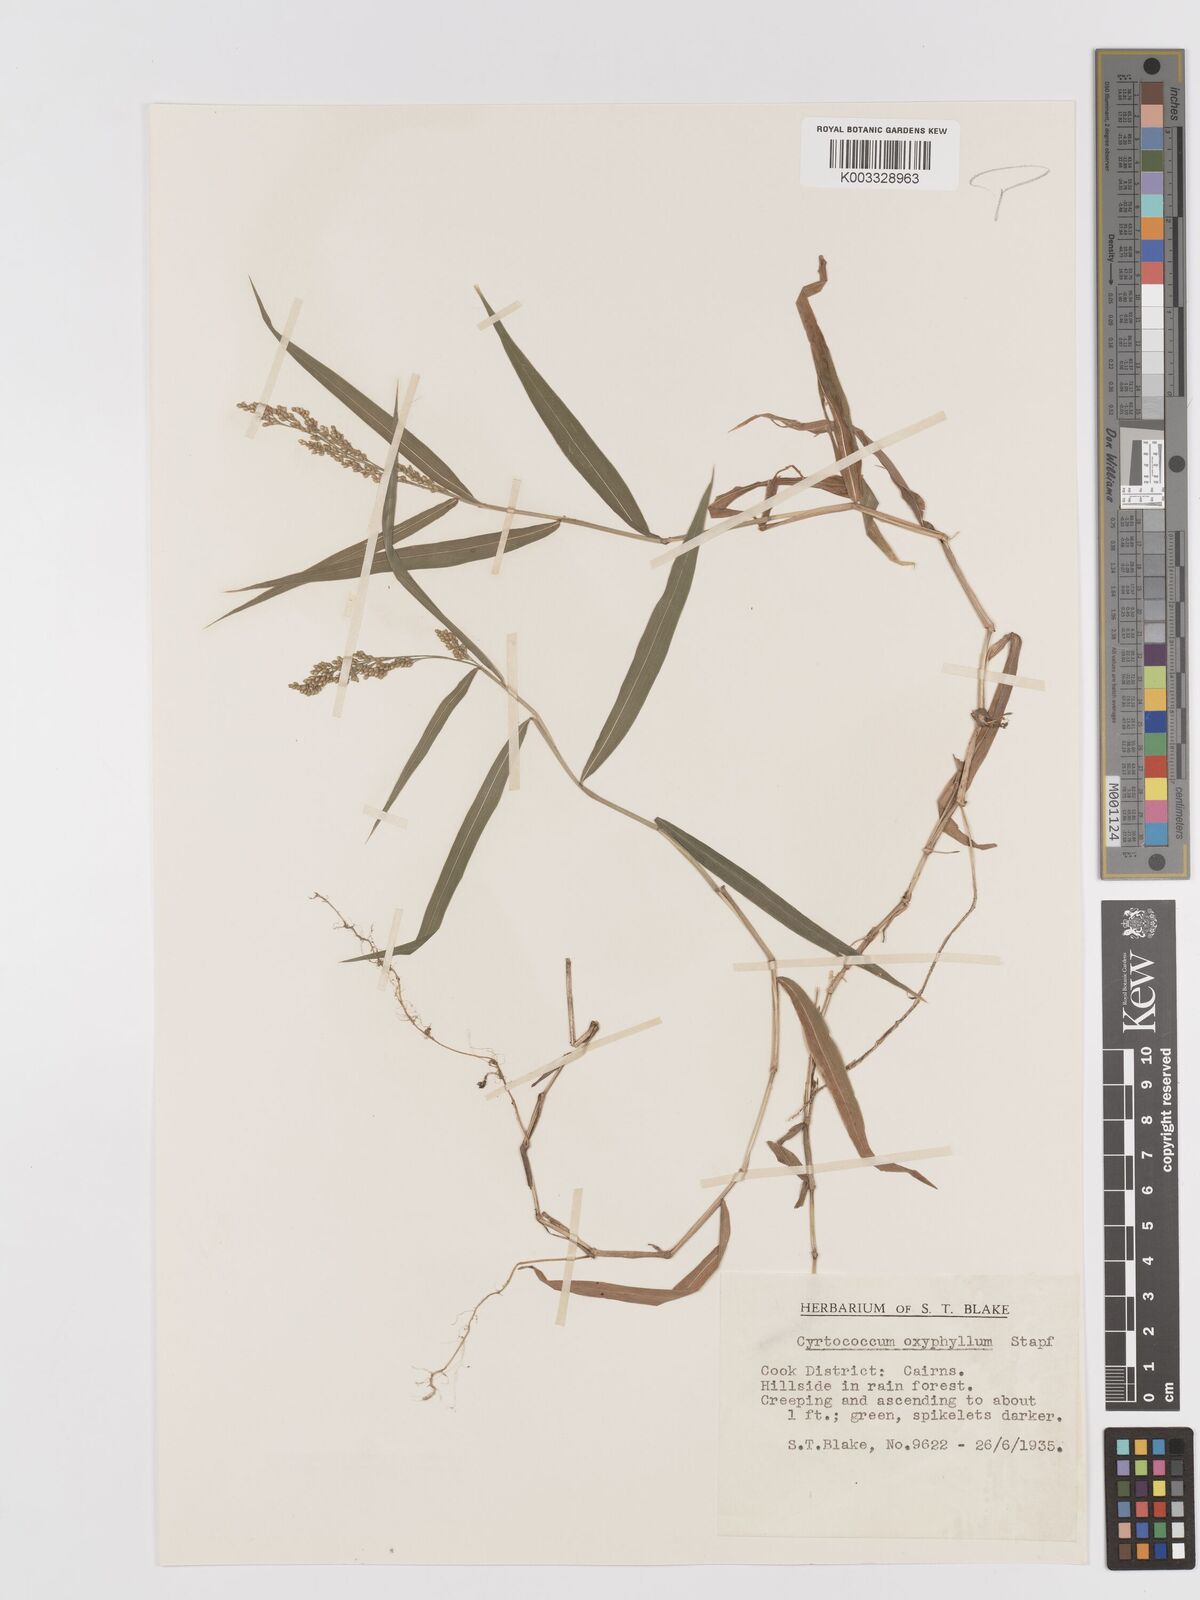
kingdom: Plantae
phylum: Tracheophyta
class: Liliopsida
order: Poales
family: Poaceae
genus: Cyrtococcum
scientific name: Cyrtococcum oxyphyllum
